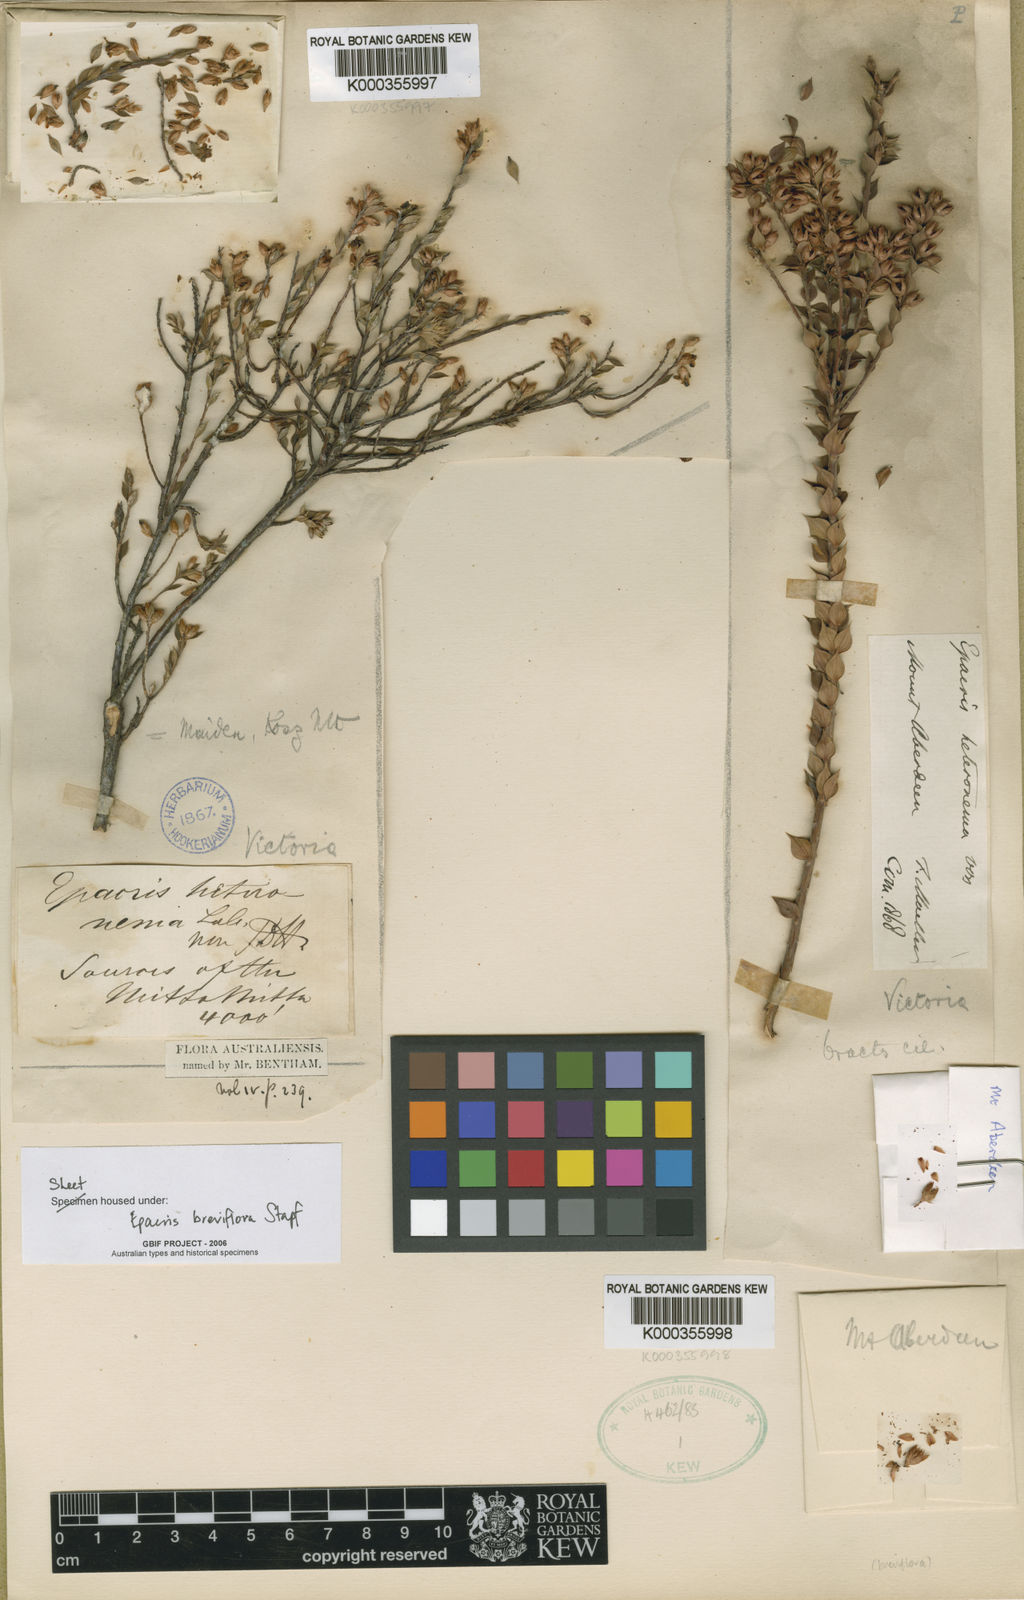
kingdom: Plantae
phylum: Tracheophyta
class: Magnoliopsida
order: Ericales
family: Ericaceae
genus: Epacris
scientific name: Epacris breviflora
